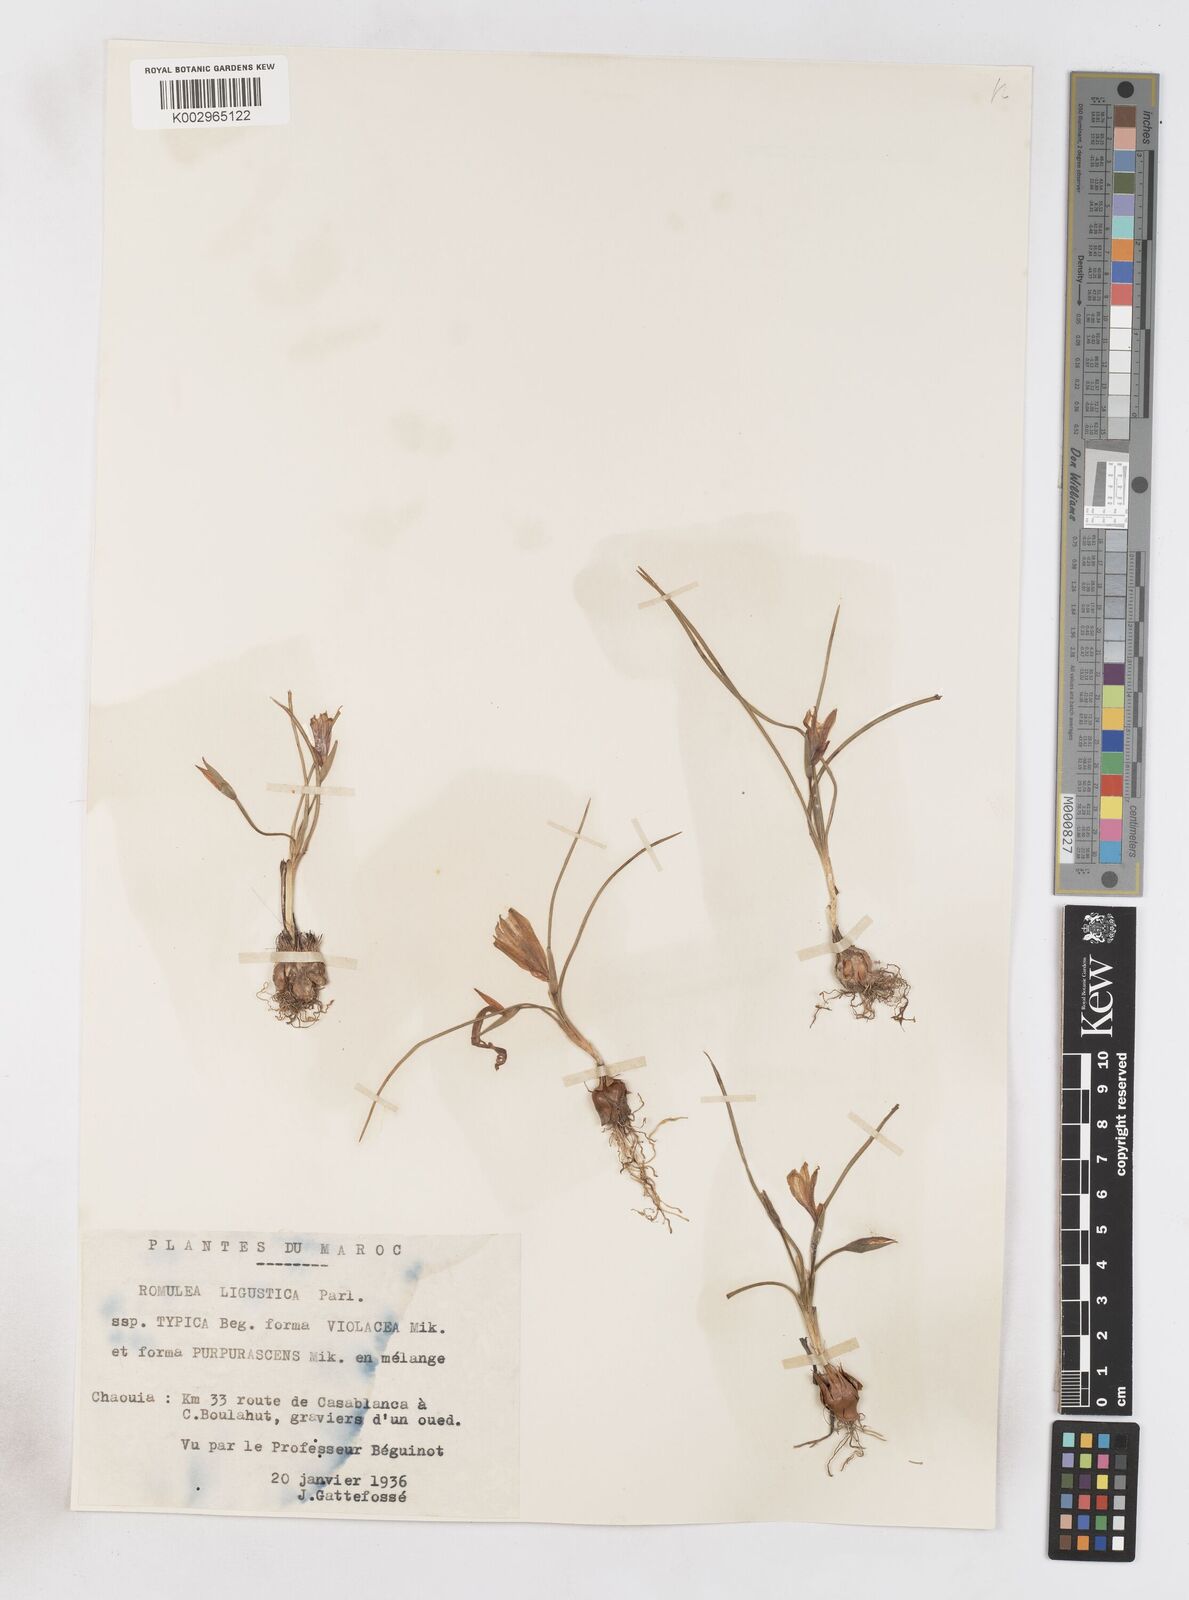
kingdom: Plantae
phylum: Tracheophyta
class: Liliopsida
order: Asparagales
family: Iridaceae
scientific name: Iridaceae
